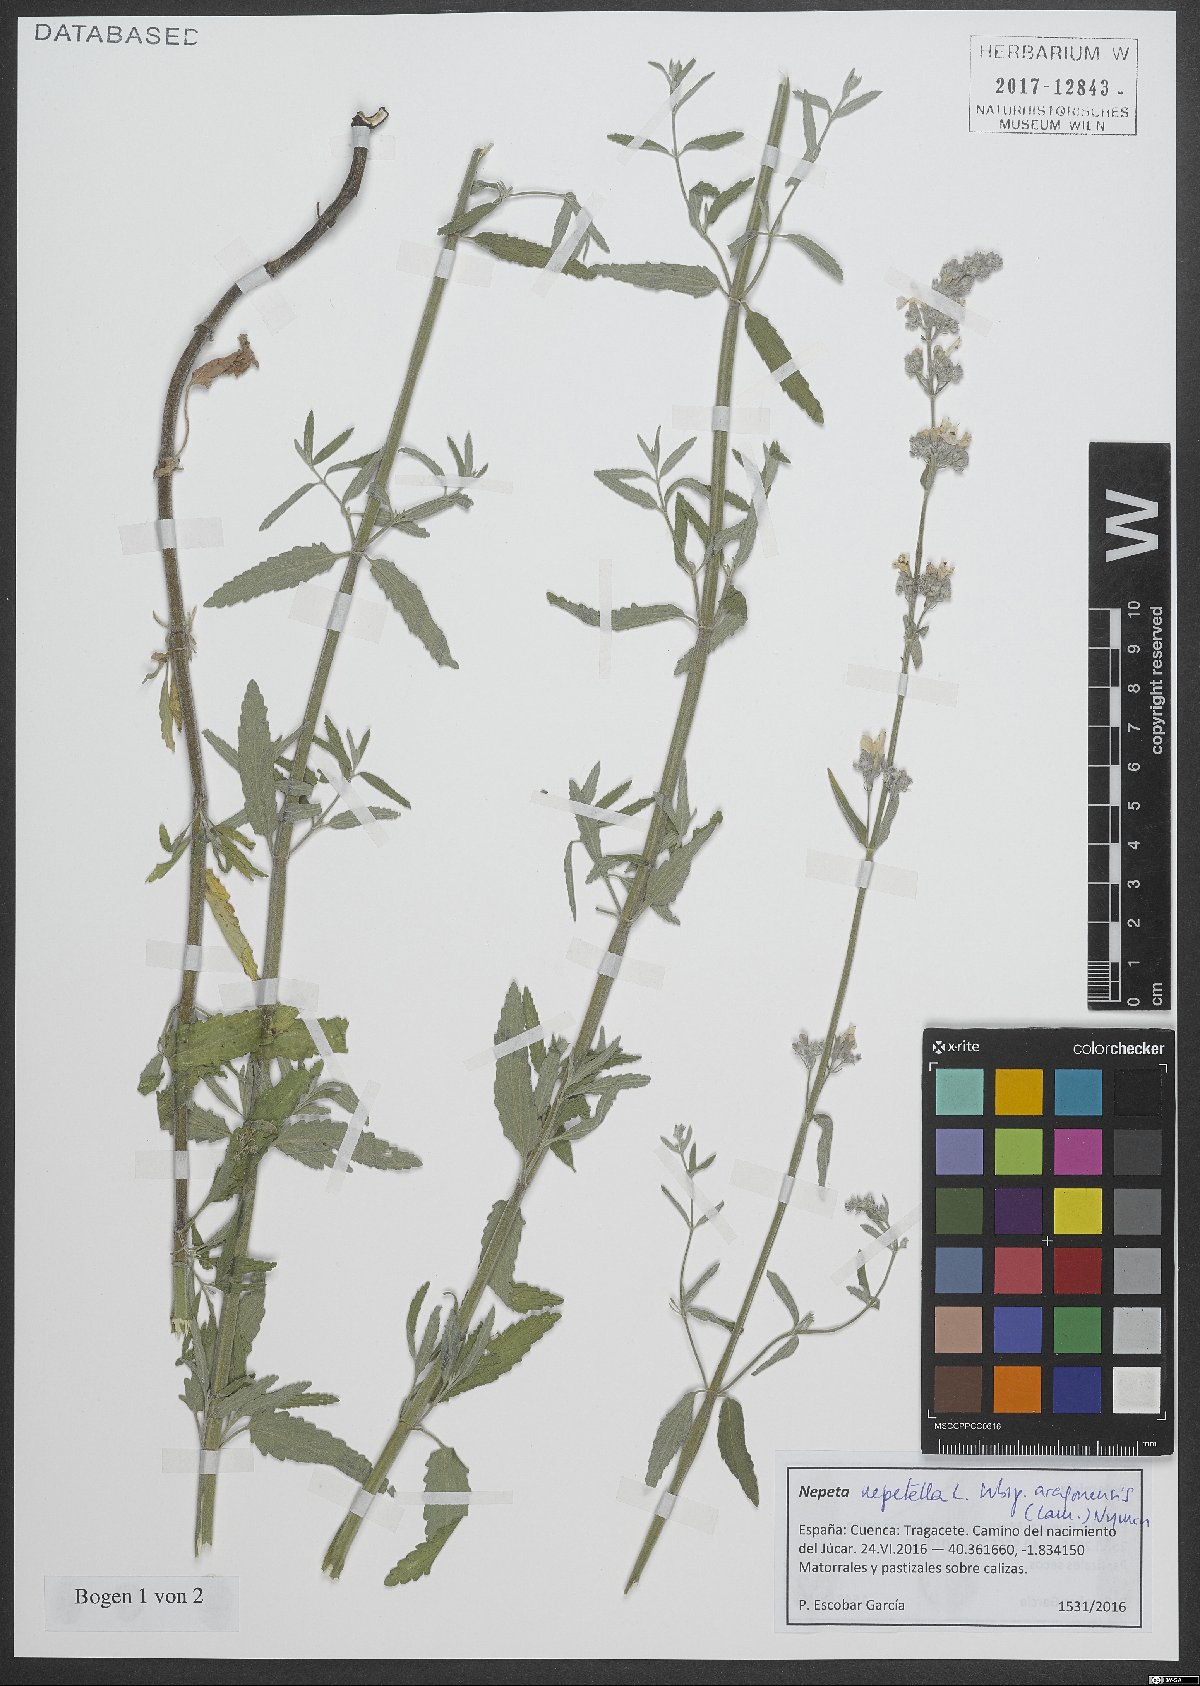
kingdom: Plantae
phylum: Tracheophyta
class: Magnoliopsida
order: Lamiales
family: Lamiaceae
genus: Nepeta
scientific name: Nepeta nepetella
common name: Lesser catmint
